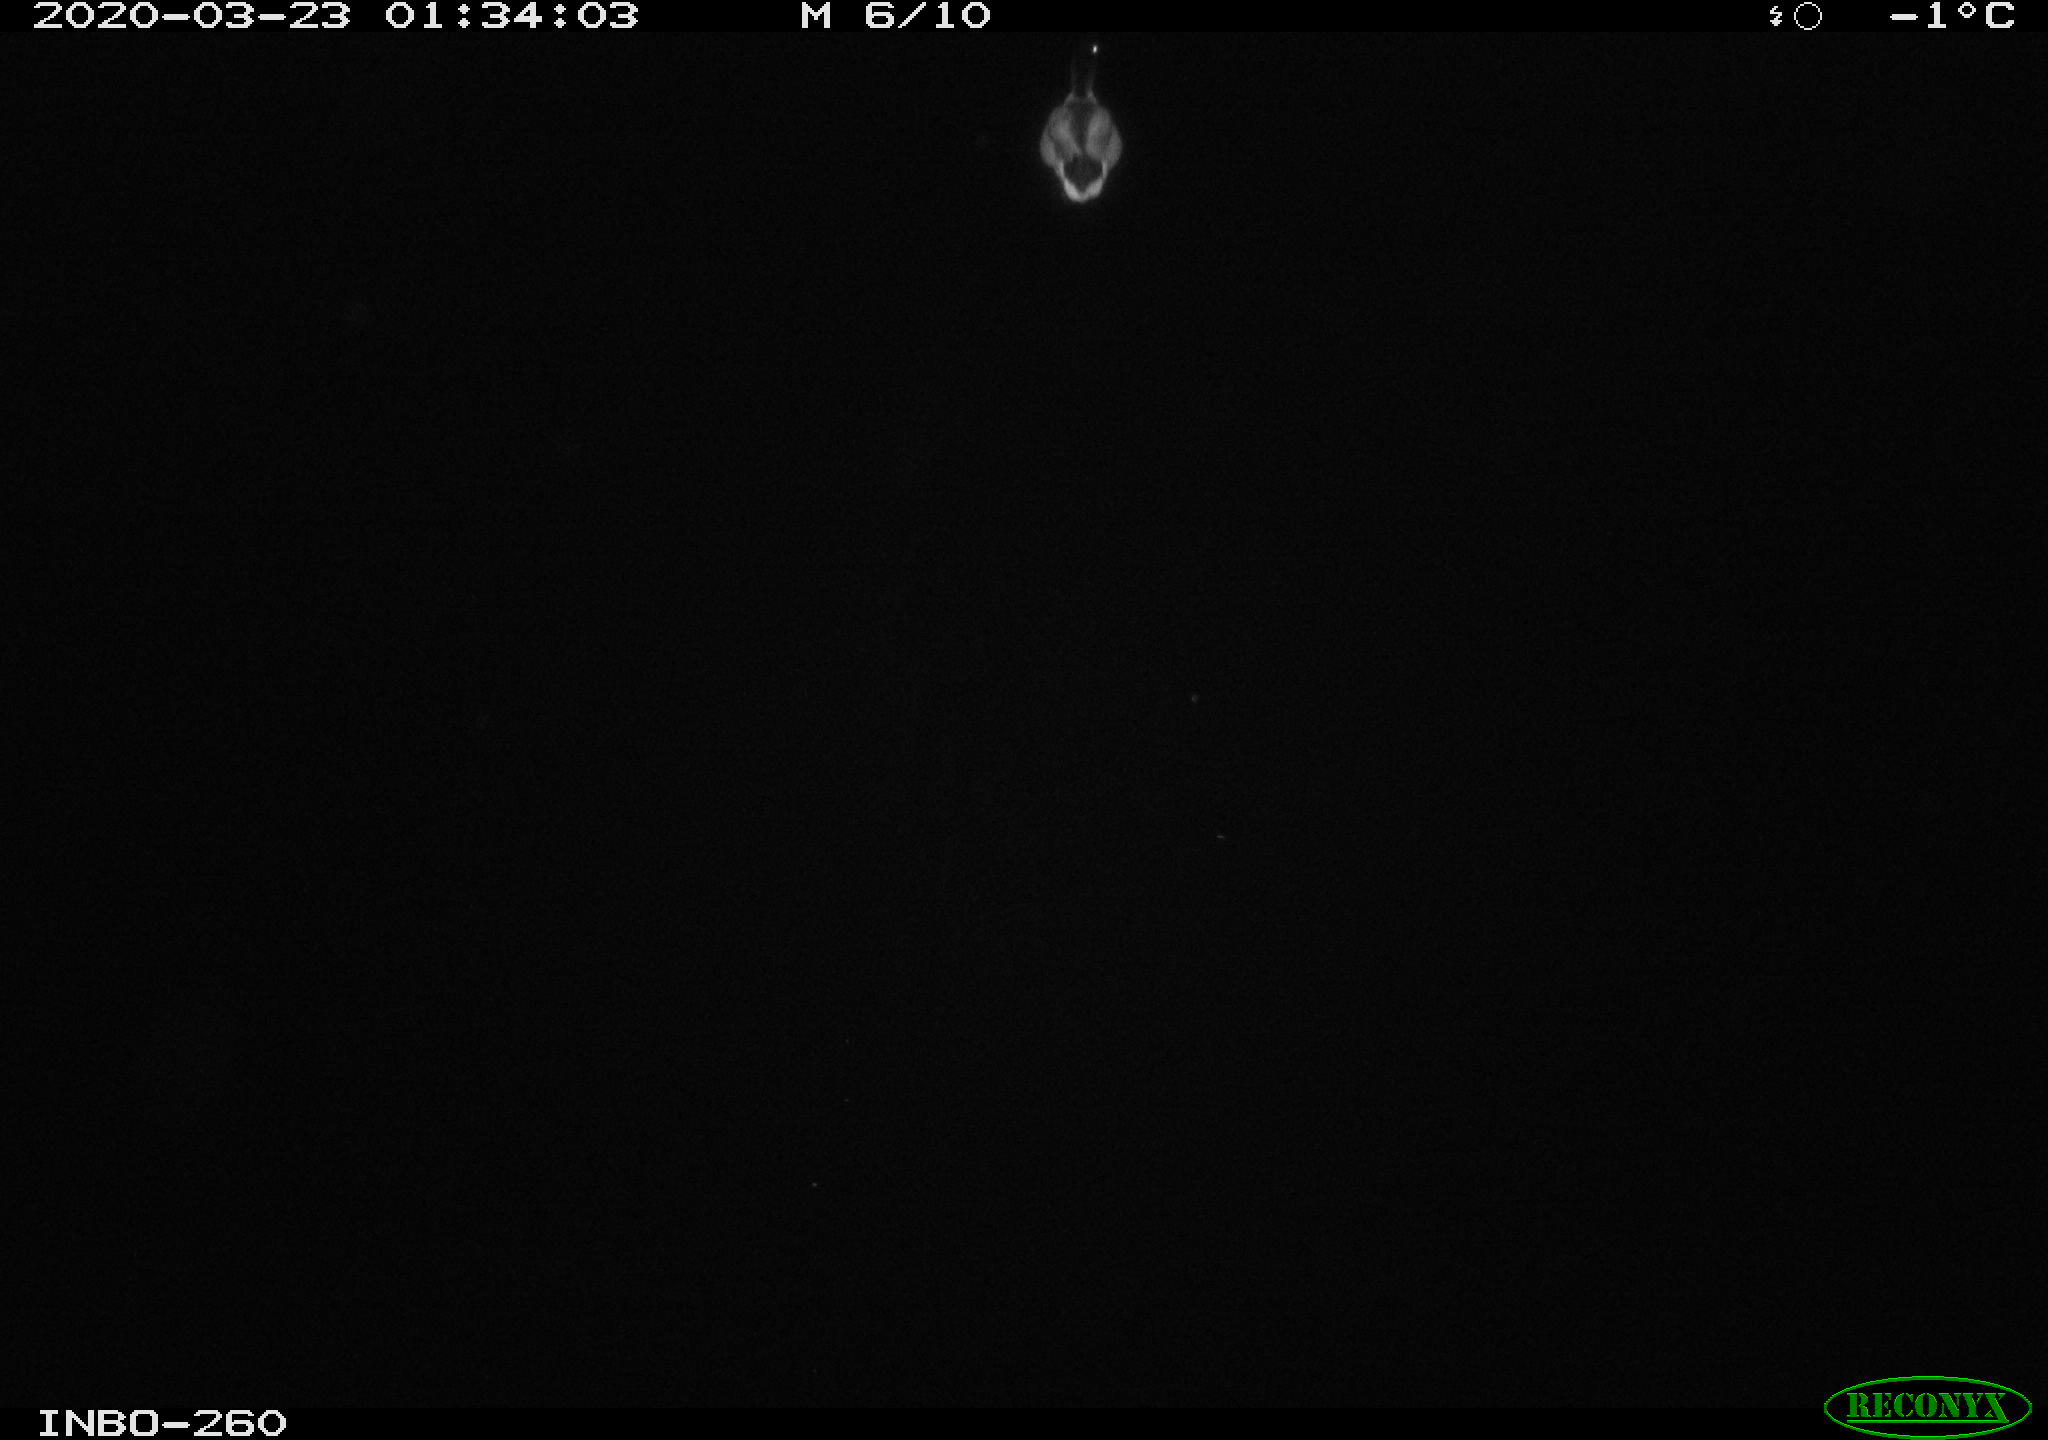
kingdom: Animalia
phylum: Chordata
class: Aves
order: Anseriformes
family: Anatidae
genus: Anas
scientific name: Anas platyrhynchos
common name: Mallard
